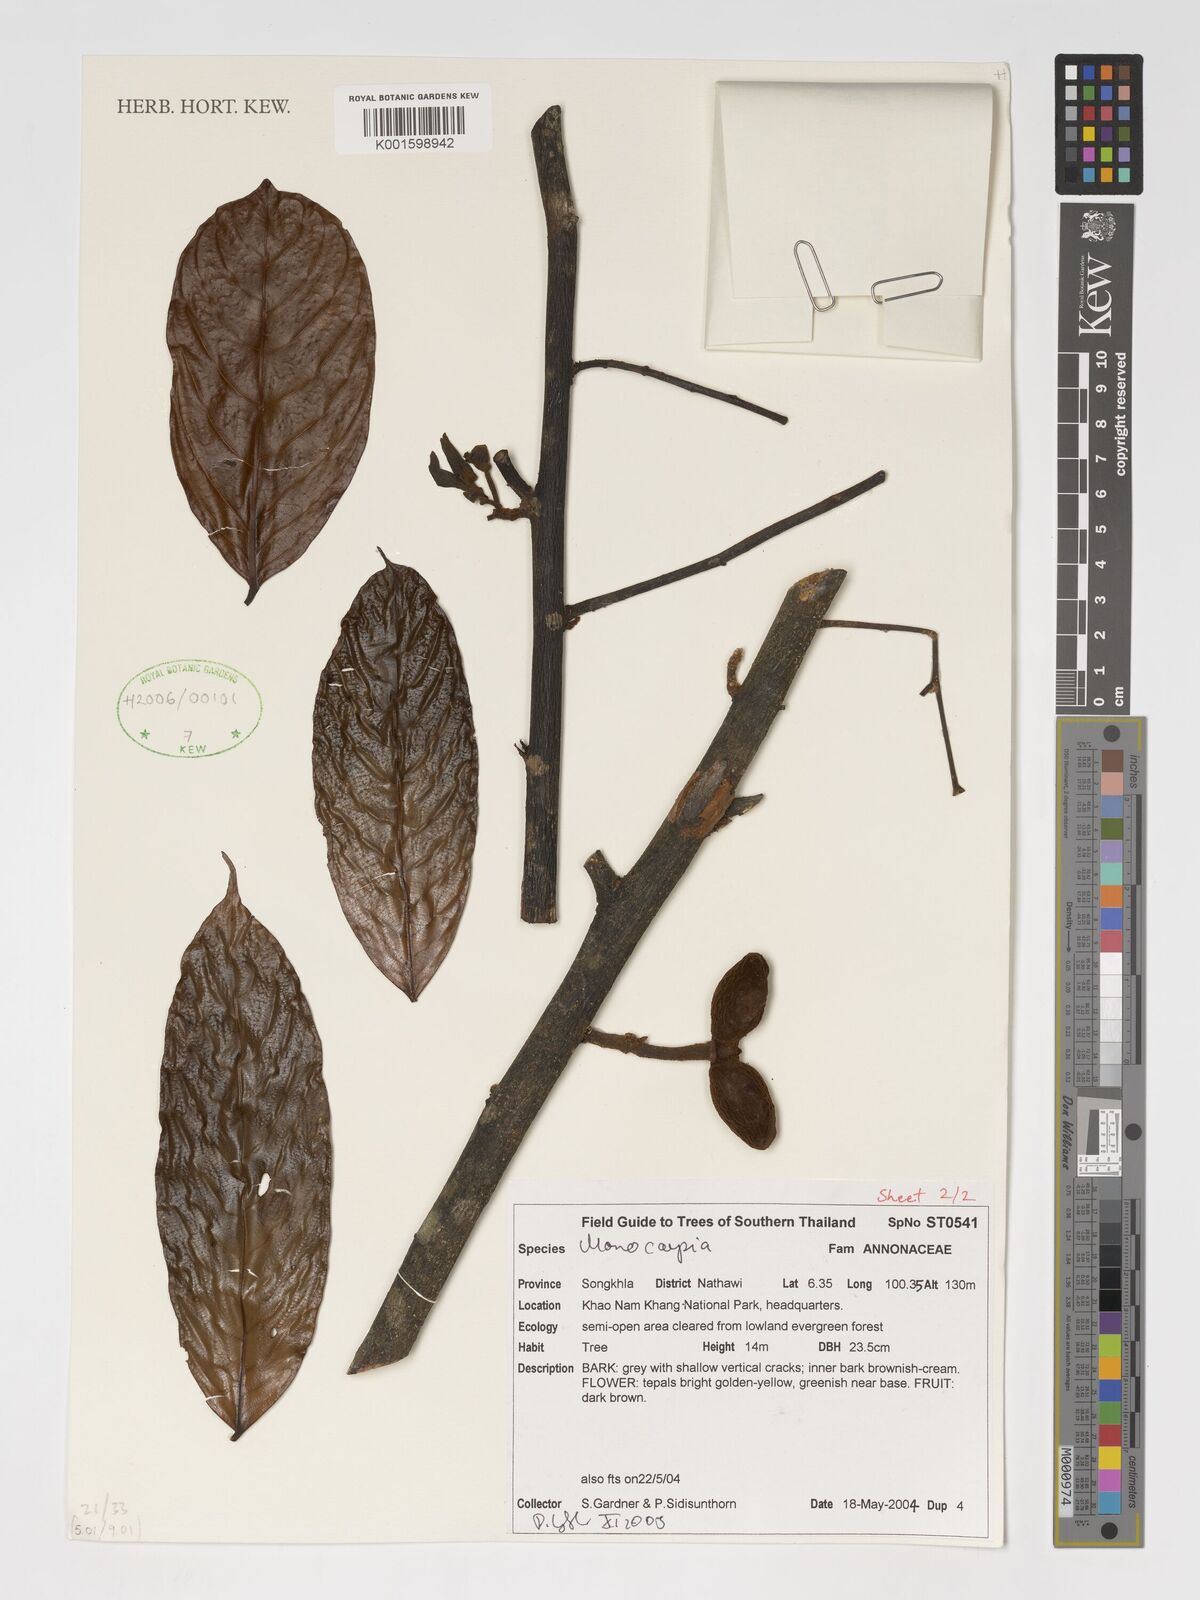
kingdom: Plantae
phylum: Tracheophyta
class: Magnoliopsida
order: Magnoliales
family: Annonaceae
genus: Monocarpia
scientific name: Monocarpia
